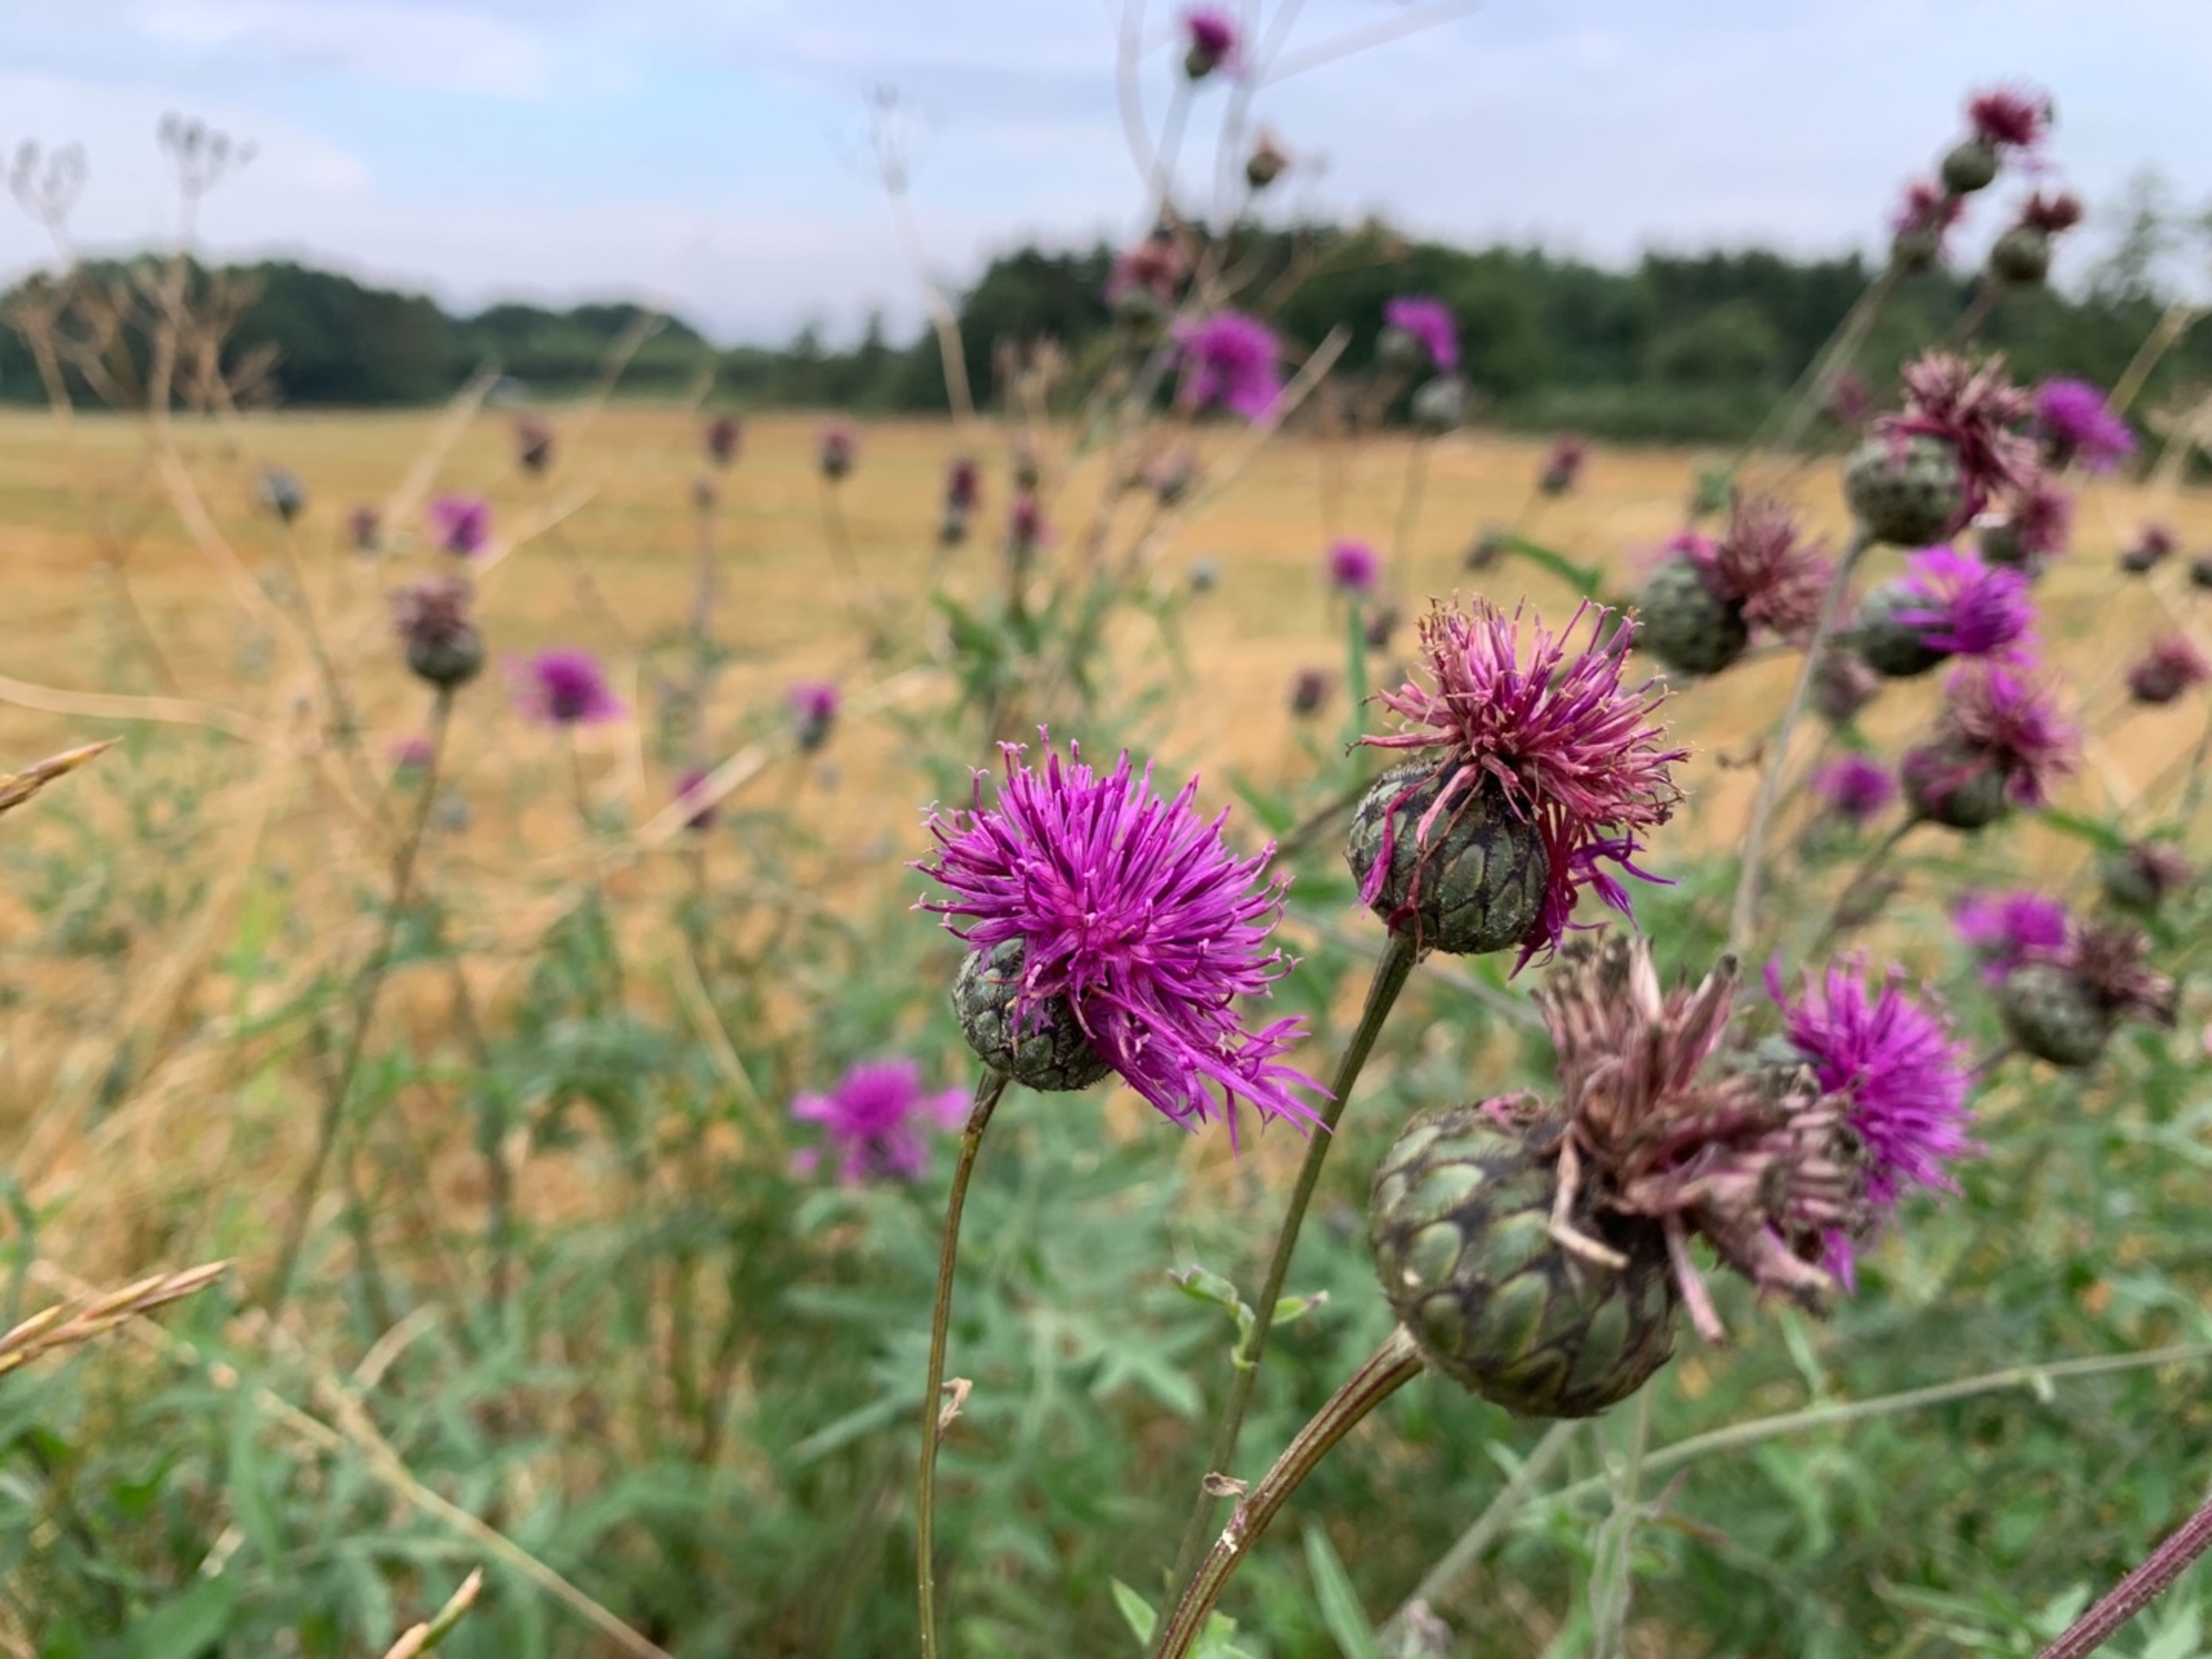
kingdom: Plantae
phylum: Tracheophyta
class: Magnoliopsida
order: Asterales
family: Asteraceae
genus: Centaurea
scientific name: Centaurea scabiosa
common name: Stor knopurt
